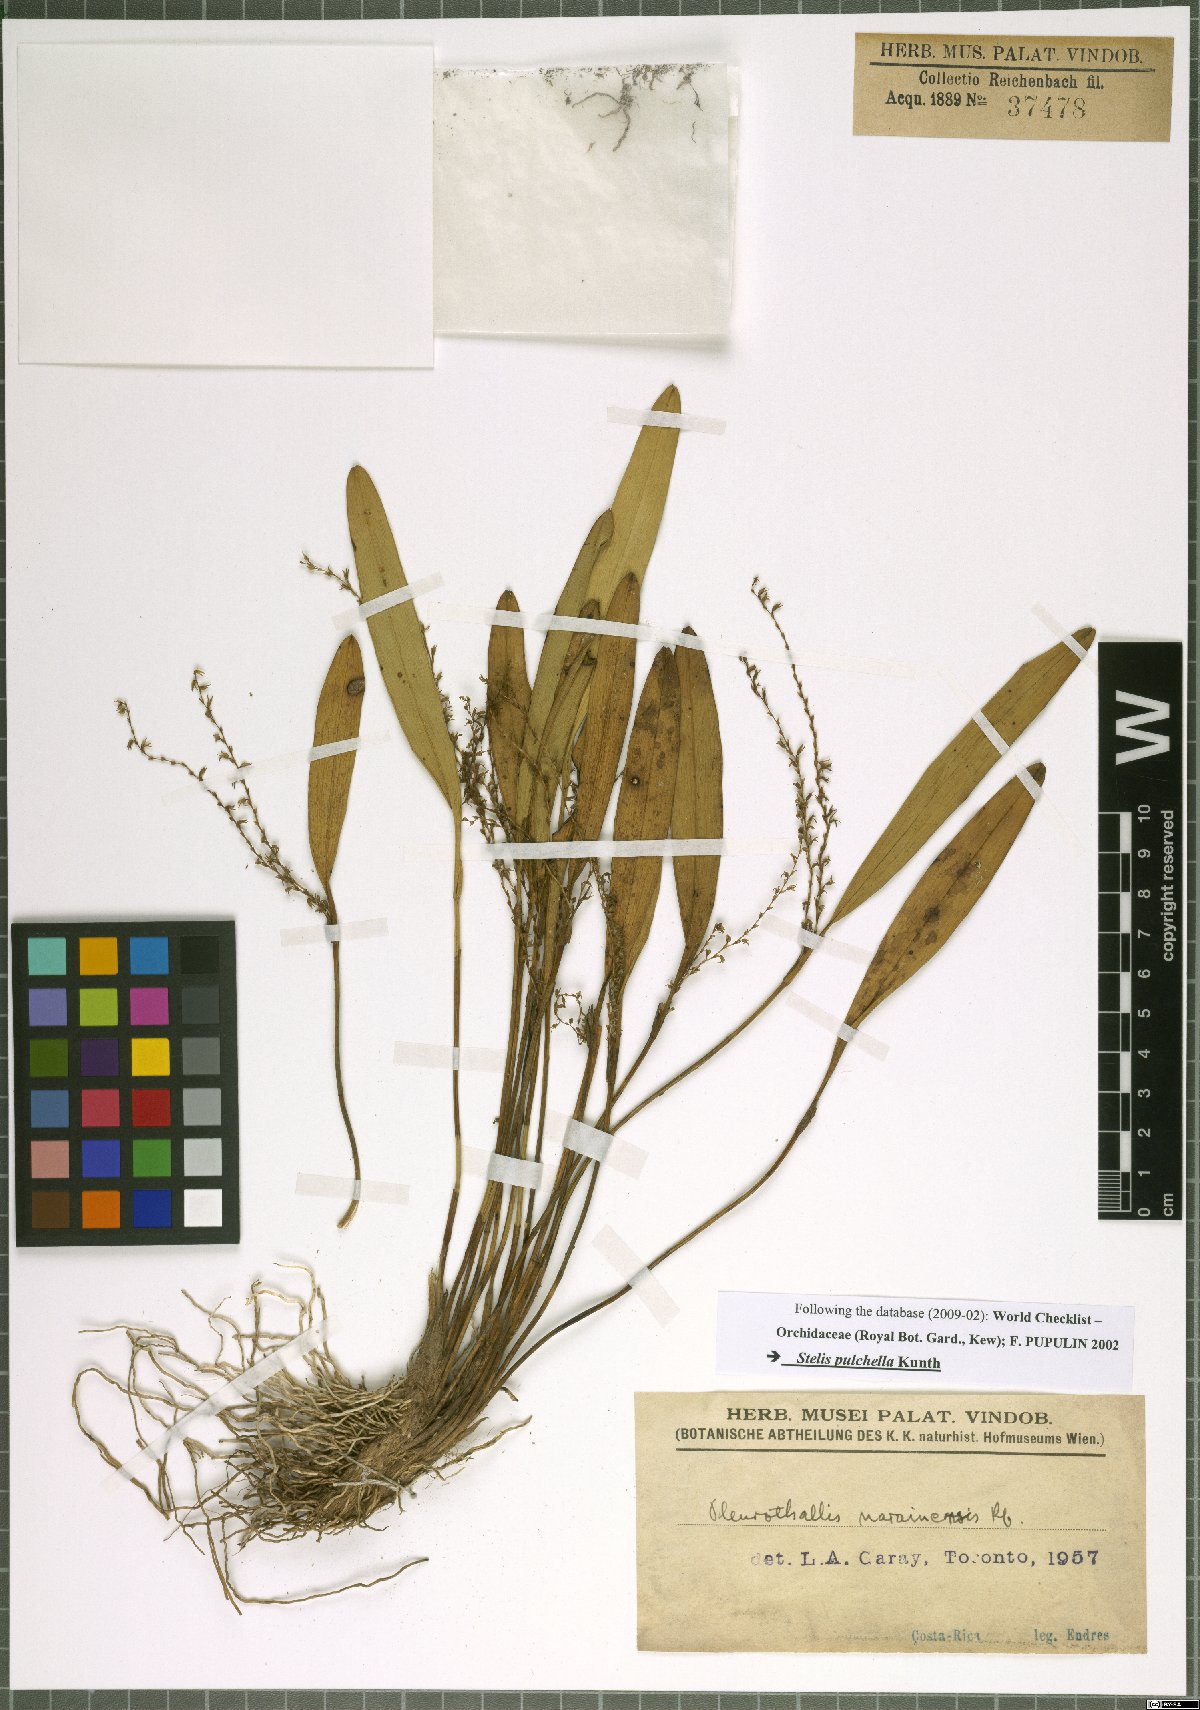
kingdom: Plantae
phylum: Tracheophyta
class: Liliopsida
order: Asparagales
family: Orchidaceae
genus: Stelis
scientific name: Stelis pulchella
